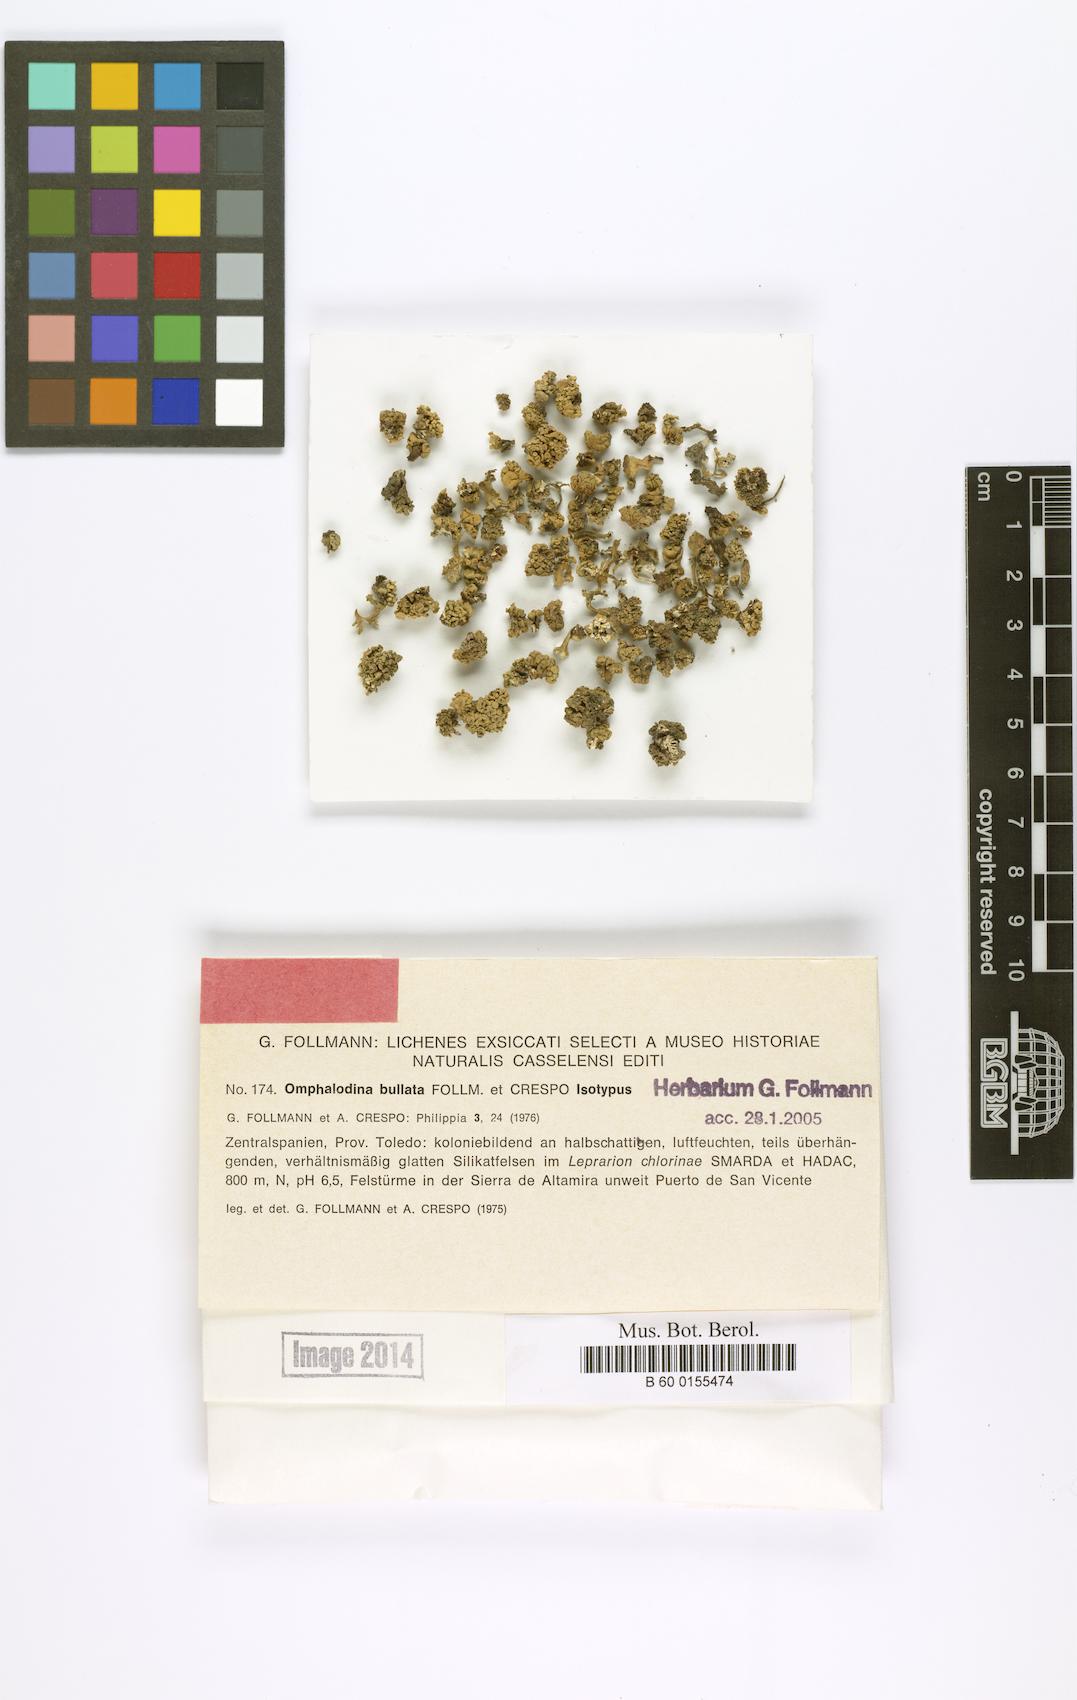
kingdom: Fungi
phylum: Ascomycota
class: Lecanoromycetes
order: Lecanorales
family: Lecanoraceae
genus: Straminella
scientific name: Straminella bullata
